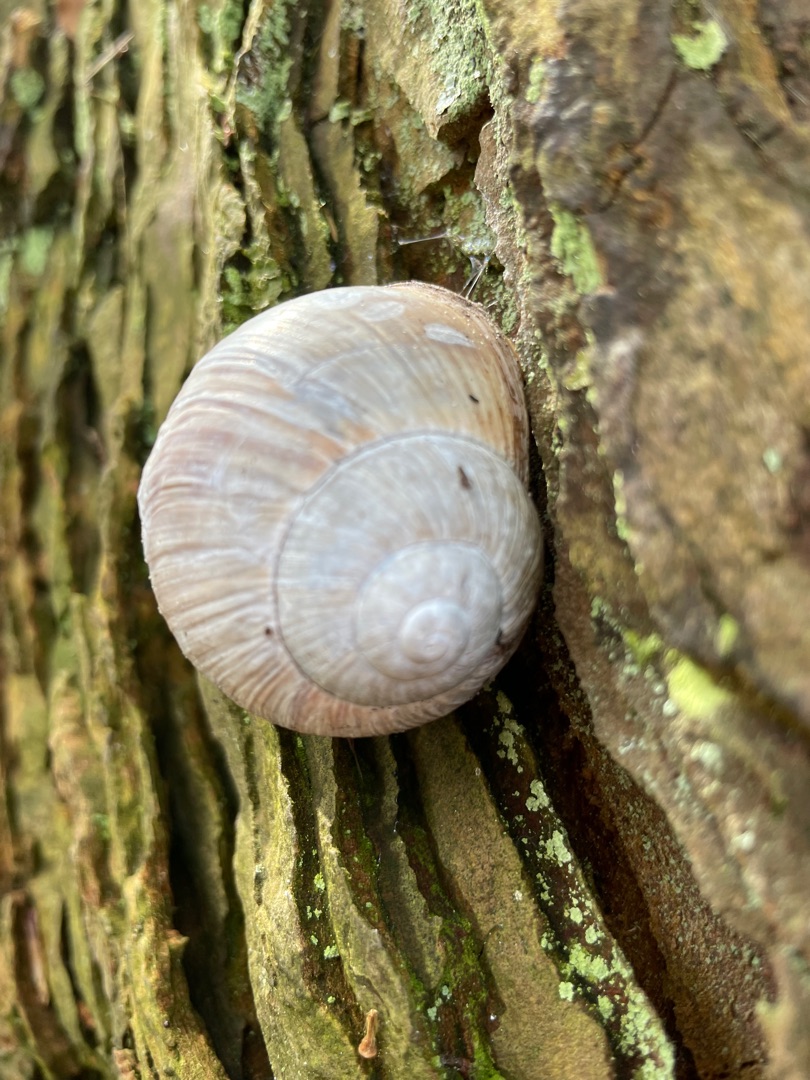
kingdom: Animalia
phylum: Mollusca
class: Gastropoda
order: Stylommatophora
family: Helicidae
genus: Helix
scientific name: Helix pomatia
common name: Vinbjergsnegl
